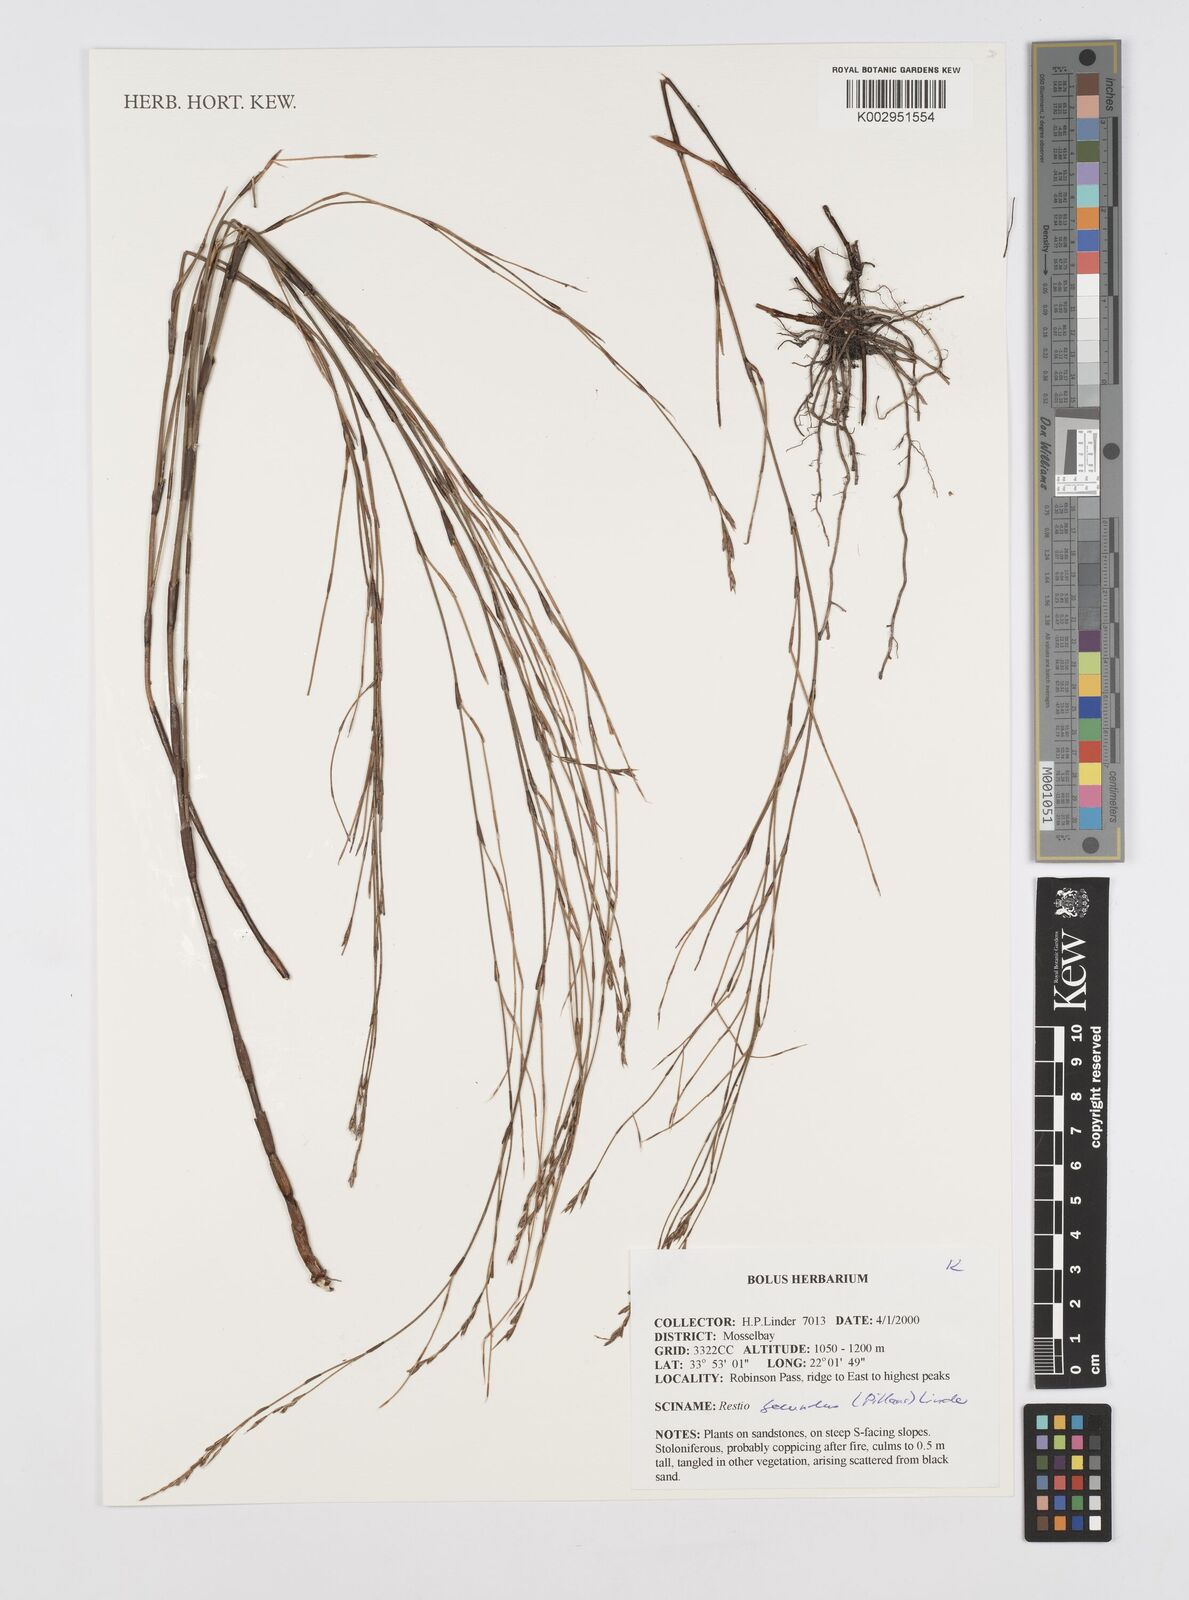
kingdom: Plantae
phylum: Tracheophyta
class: Liliopsida
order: Poales
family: Restionaceae
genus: Restio
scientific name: Restio secundus
